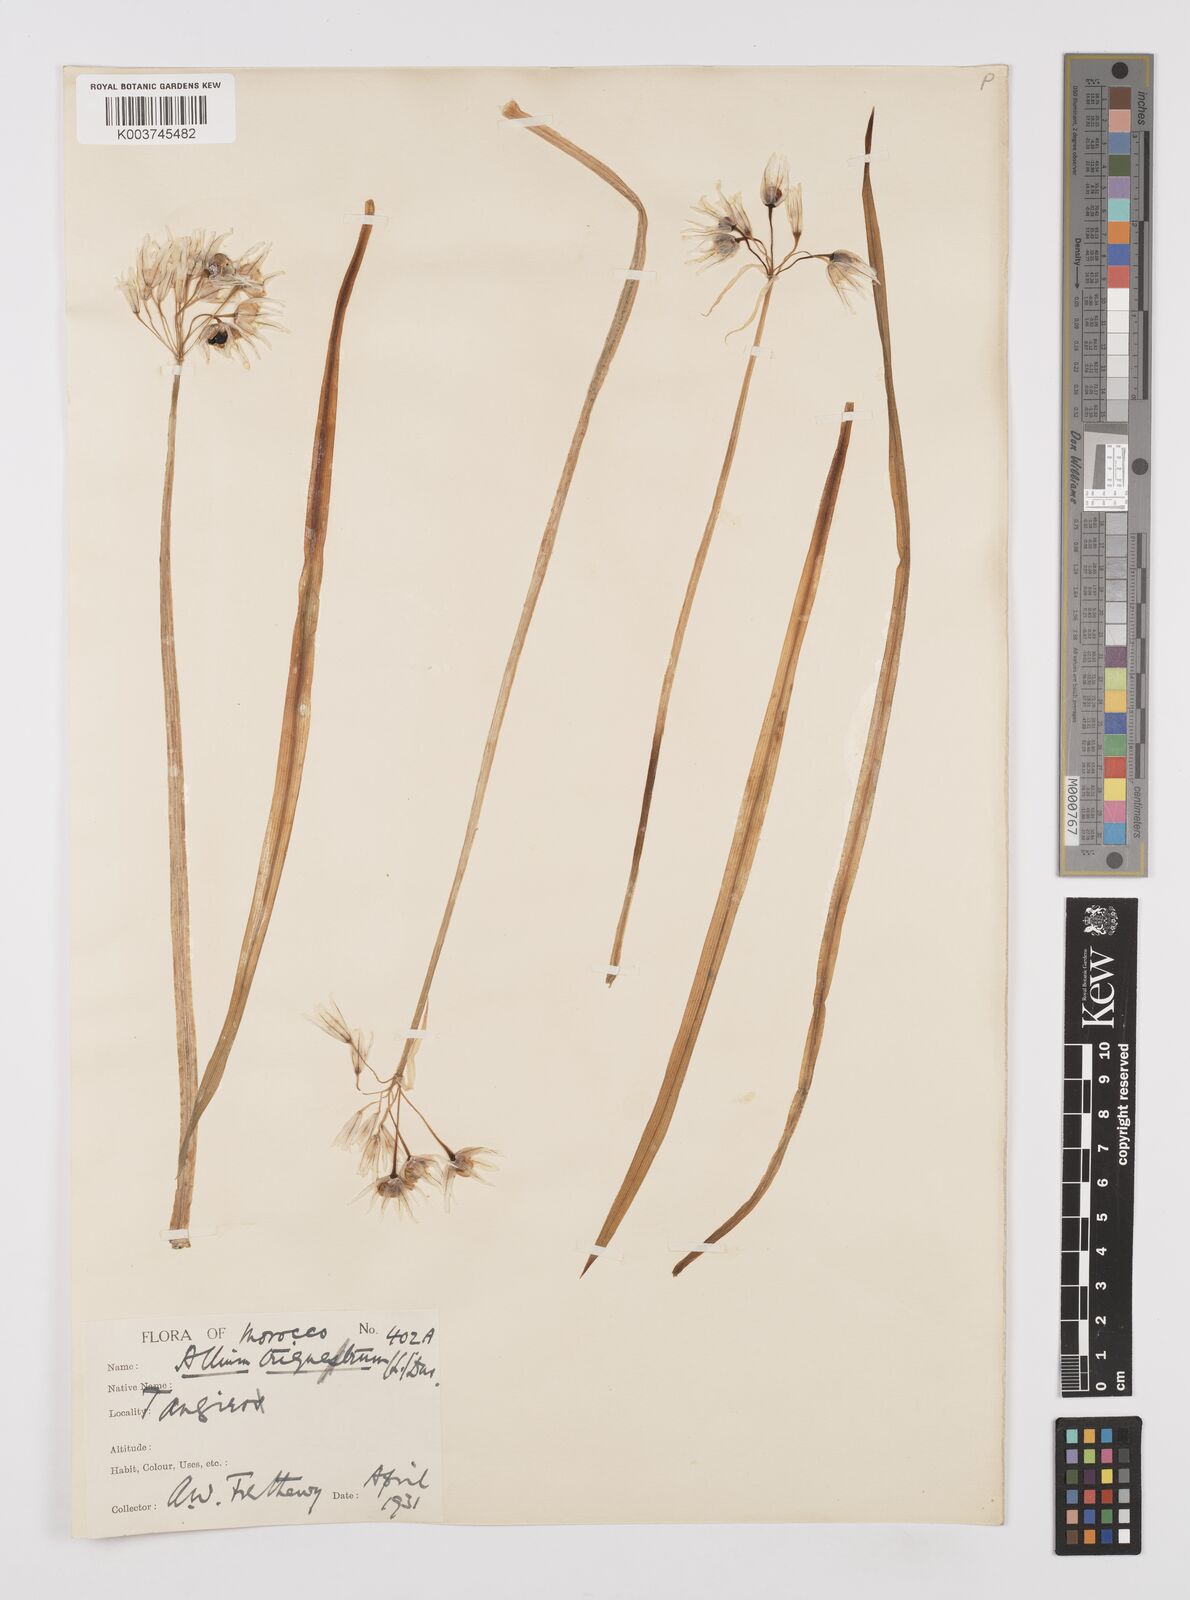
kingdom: Plantae
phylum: Tracheophyta
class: Liliopsida
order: Asparagales
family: Amaryllidaceae
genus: Allium
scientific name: Allium triquetrum
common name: Three-cornered garlic
